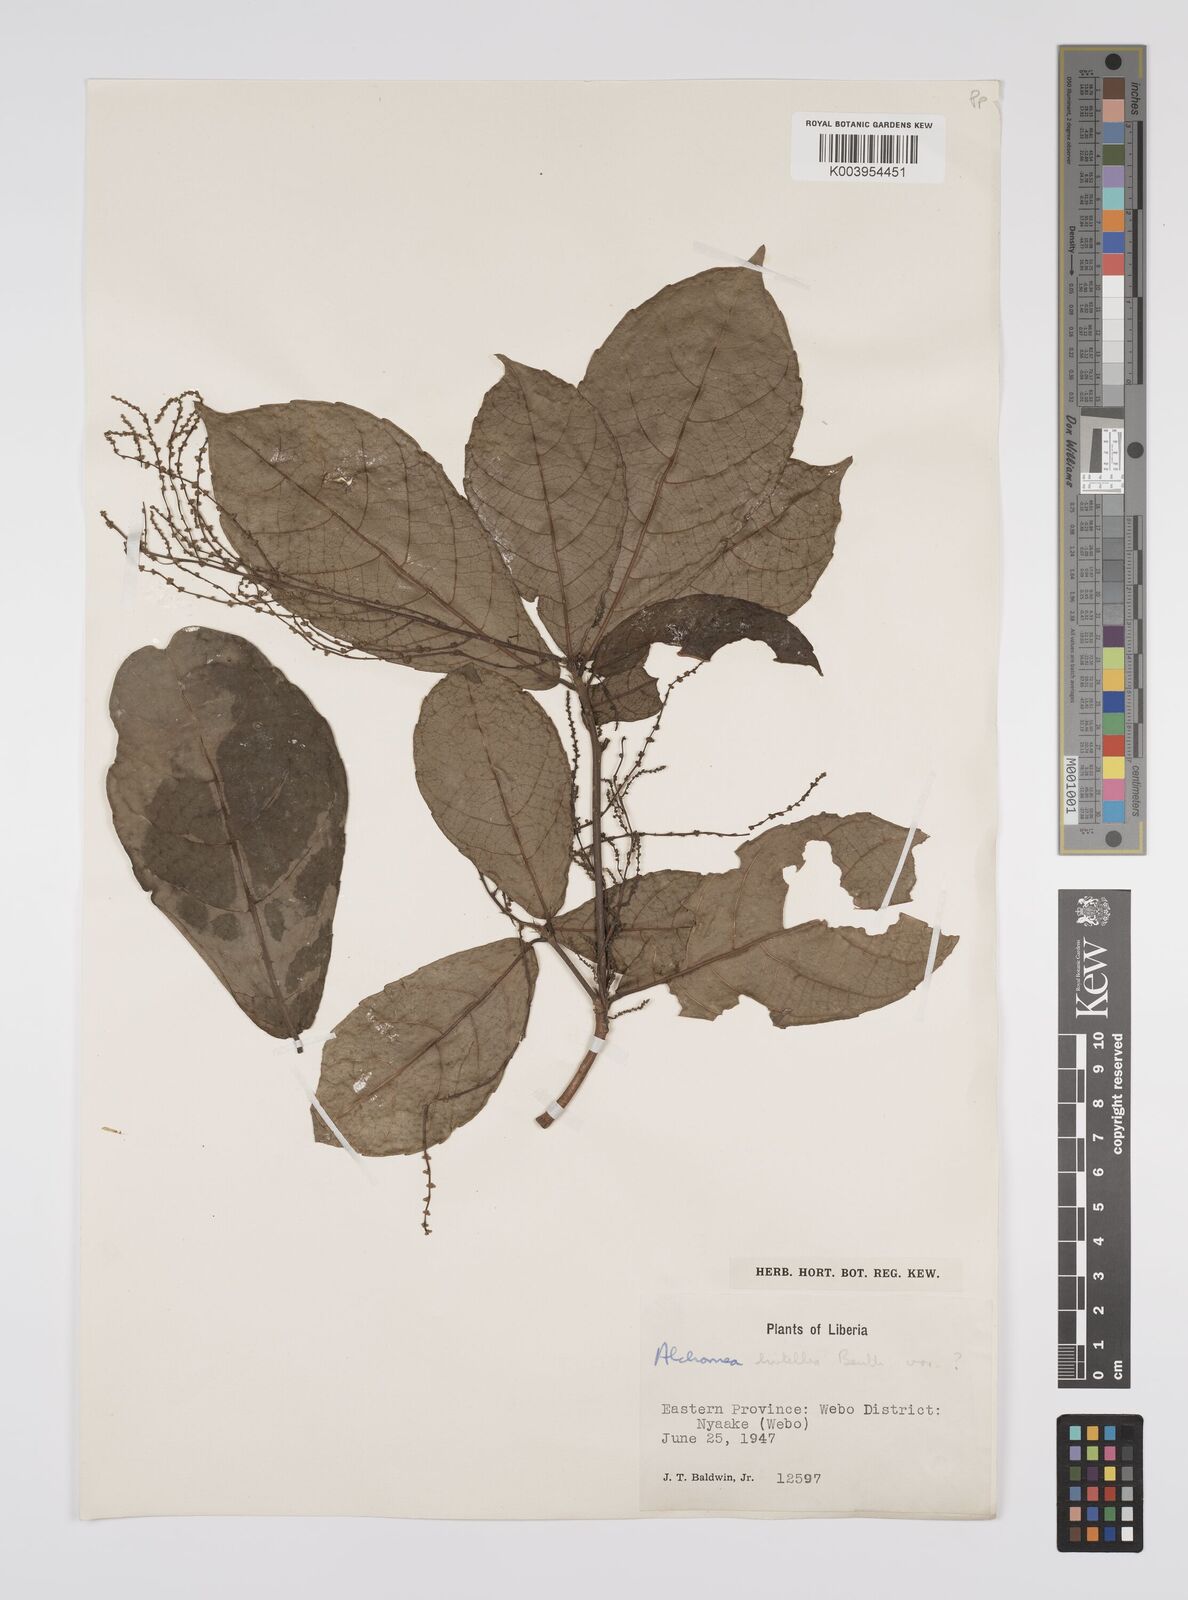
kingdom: Plantae
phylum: Tracheophyta
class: Magnoliopsida
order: Malpighiales
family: Euphorbiaceae
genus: Alchornea
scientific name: Alchornea hirtella
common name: Forest bead-string
